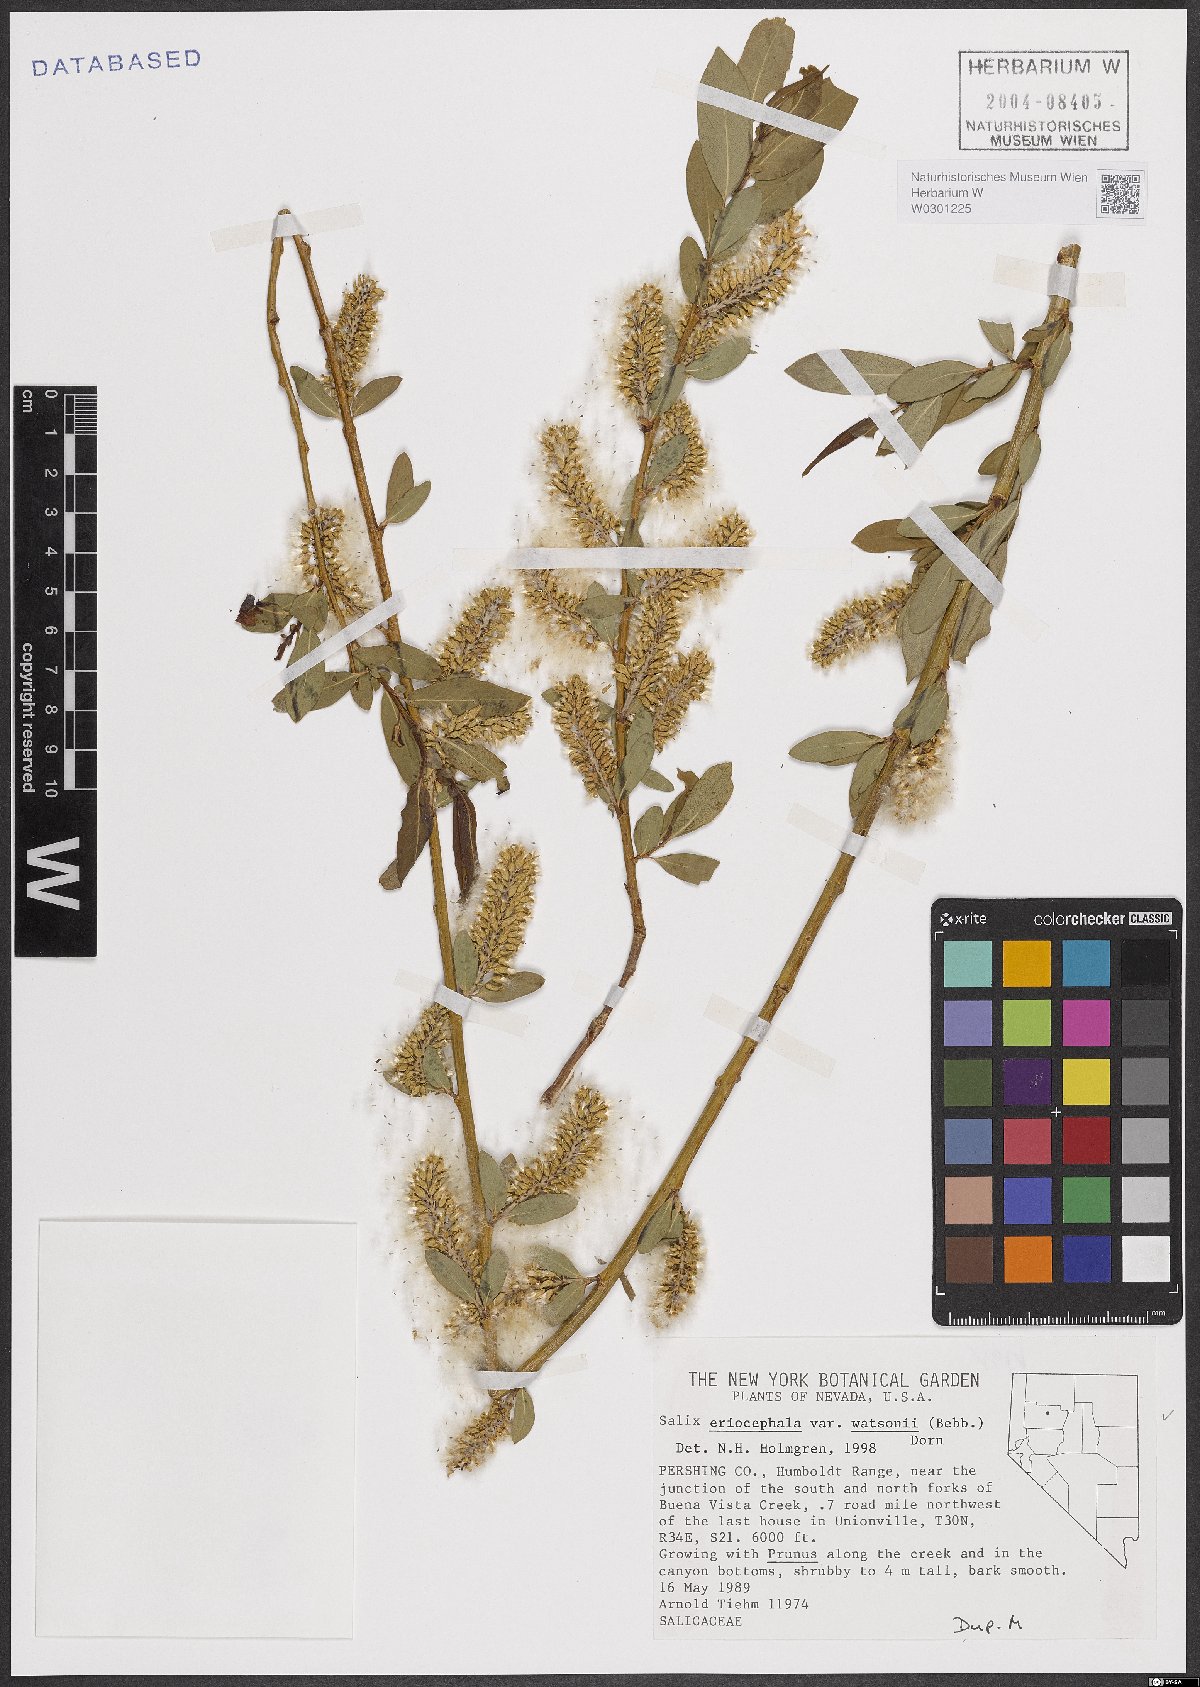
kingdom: Plantae
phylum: Tracheophyta
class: Magnoliopsida
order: Malpighiales
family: Salicaceae
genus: Salix
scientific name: Salix lutea
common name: Yellow willow
